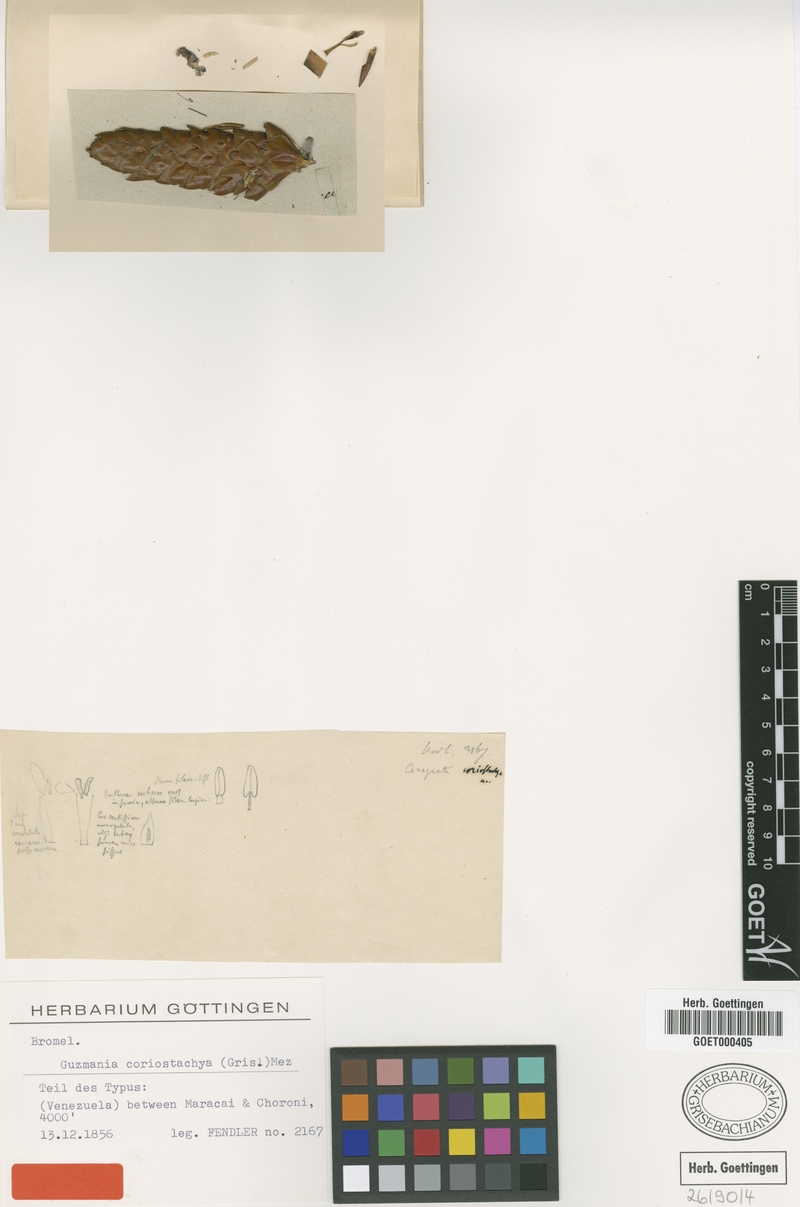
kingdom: Plantae
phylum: Tracheophyta
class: Liliopsida
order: Poales
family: Bromeliaceae
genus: Guzmania
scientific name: Guzmania coriostachya
